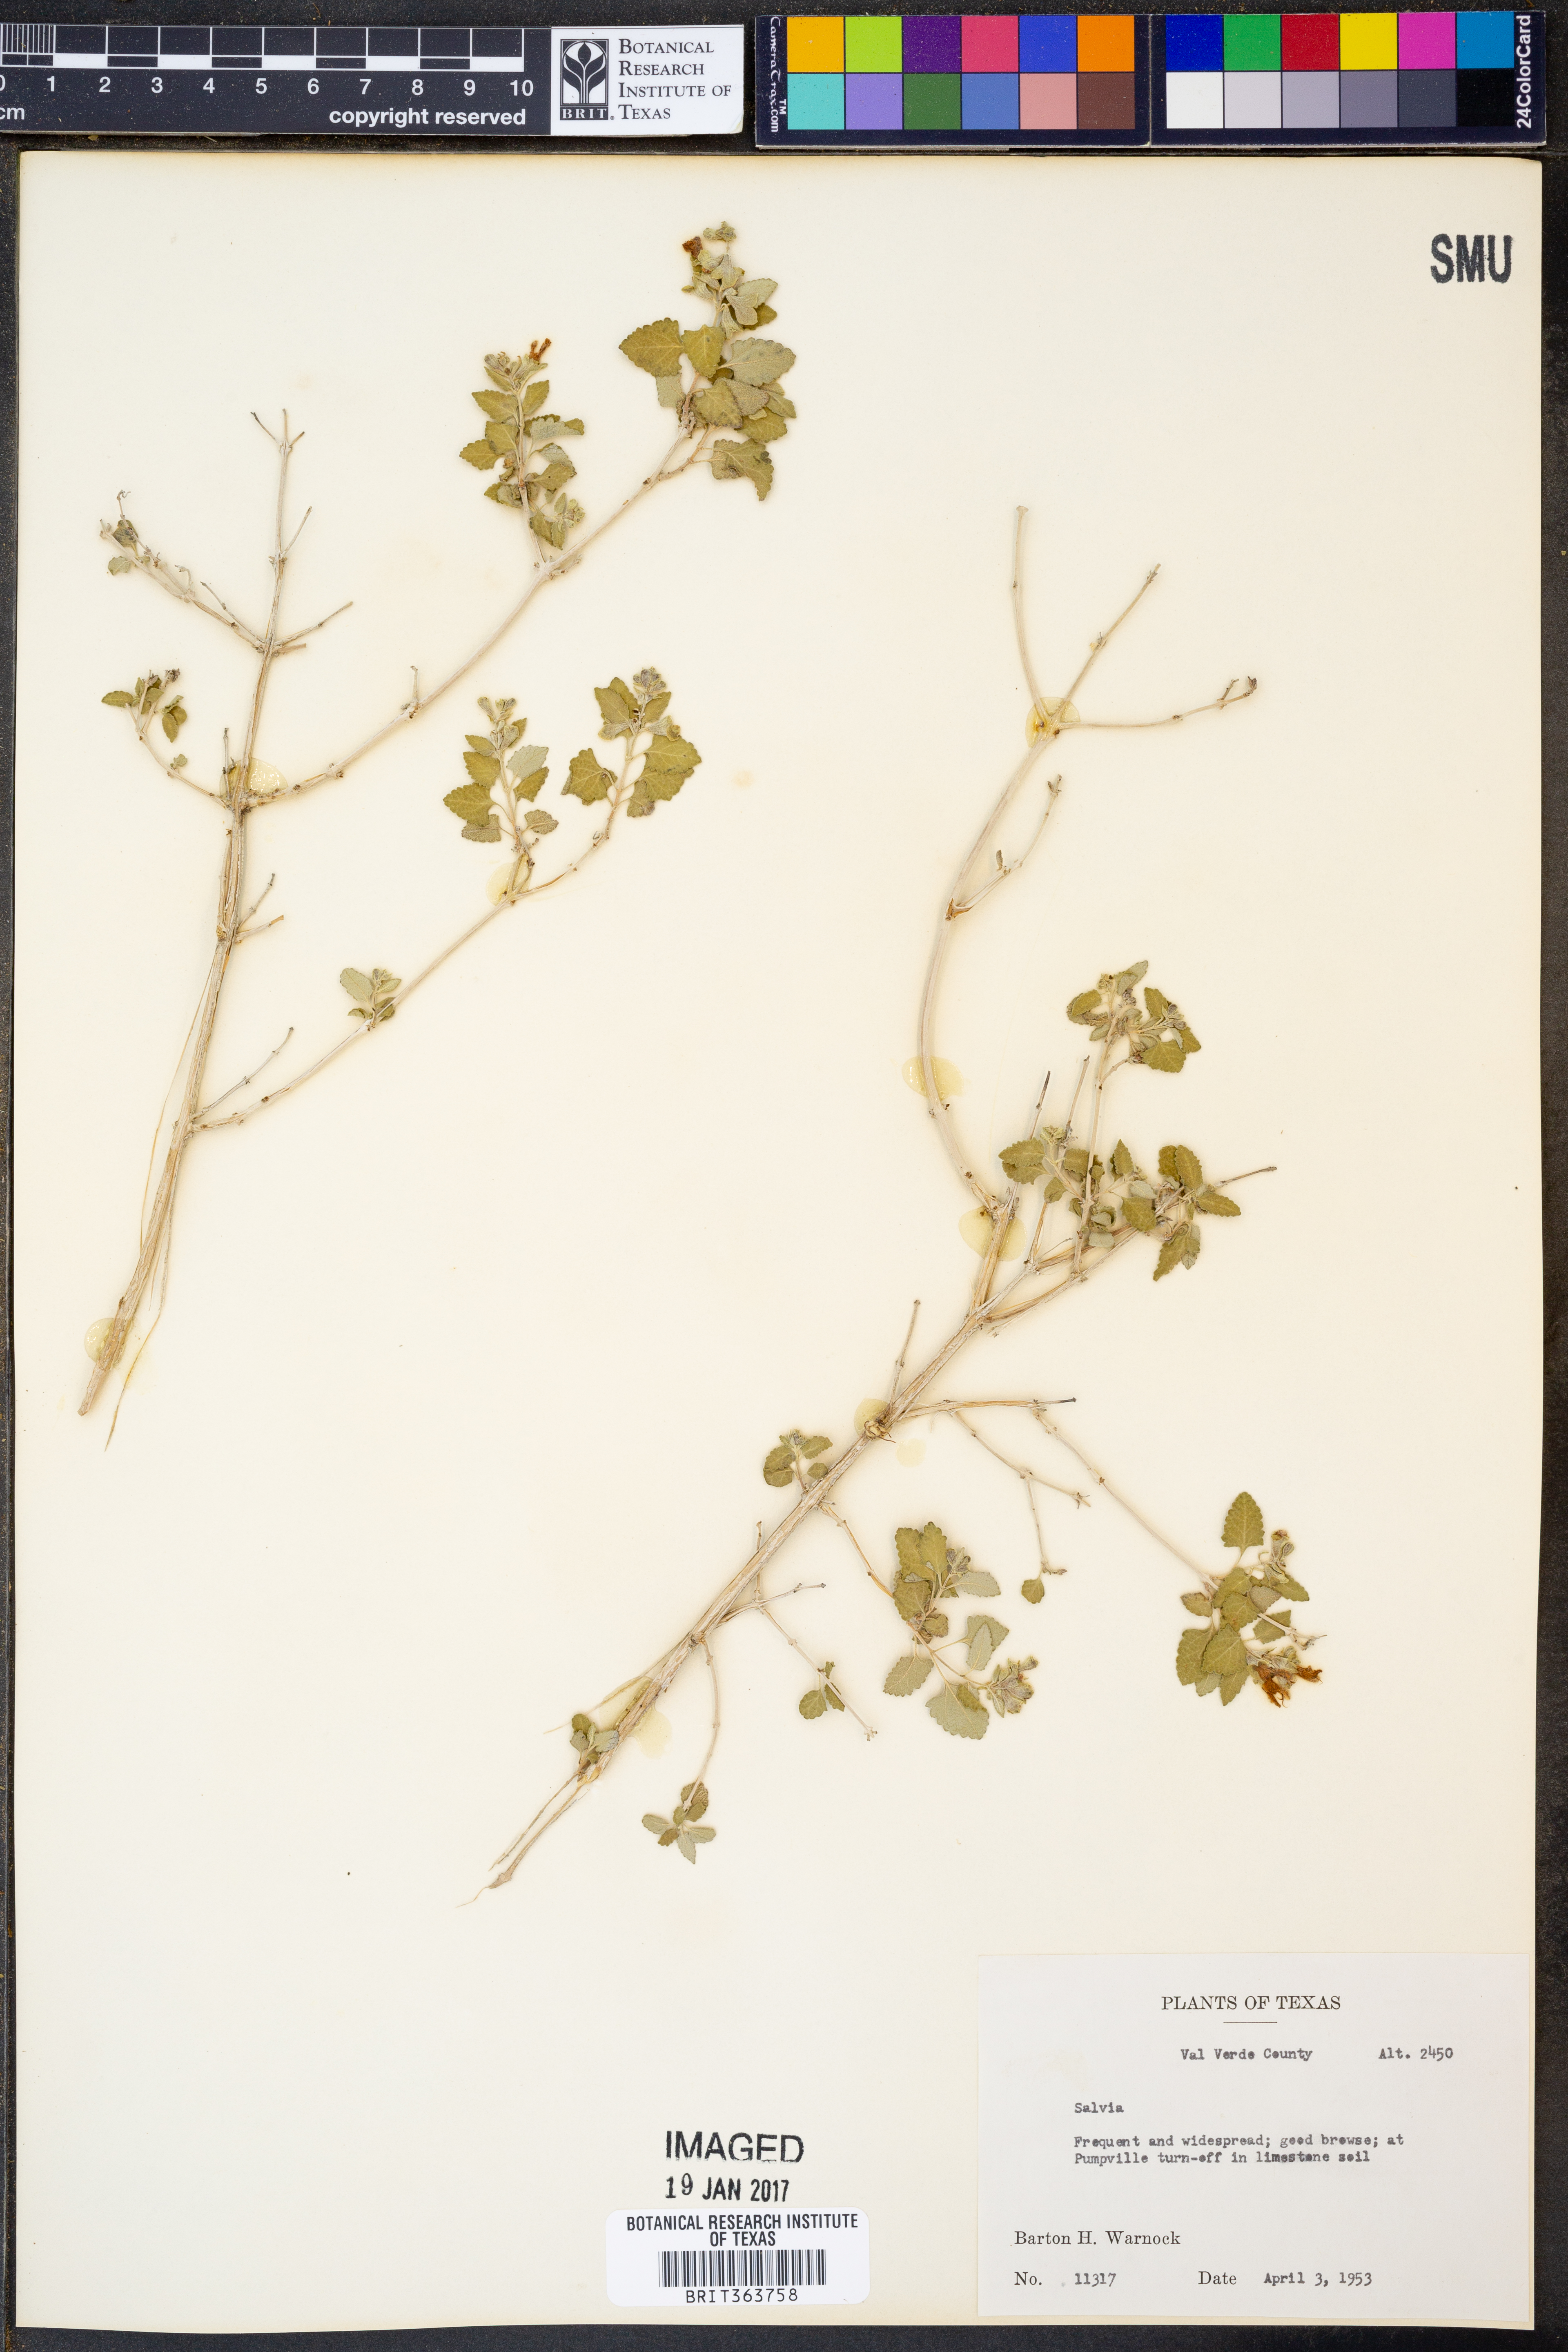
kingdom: Plantae
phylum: Tracheophyta
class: Magnoliopsida
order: Lamiales
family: Lamiaceae
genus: Salvia
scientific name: Salvia
